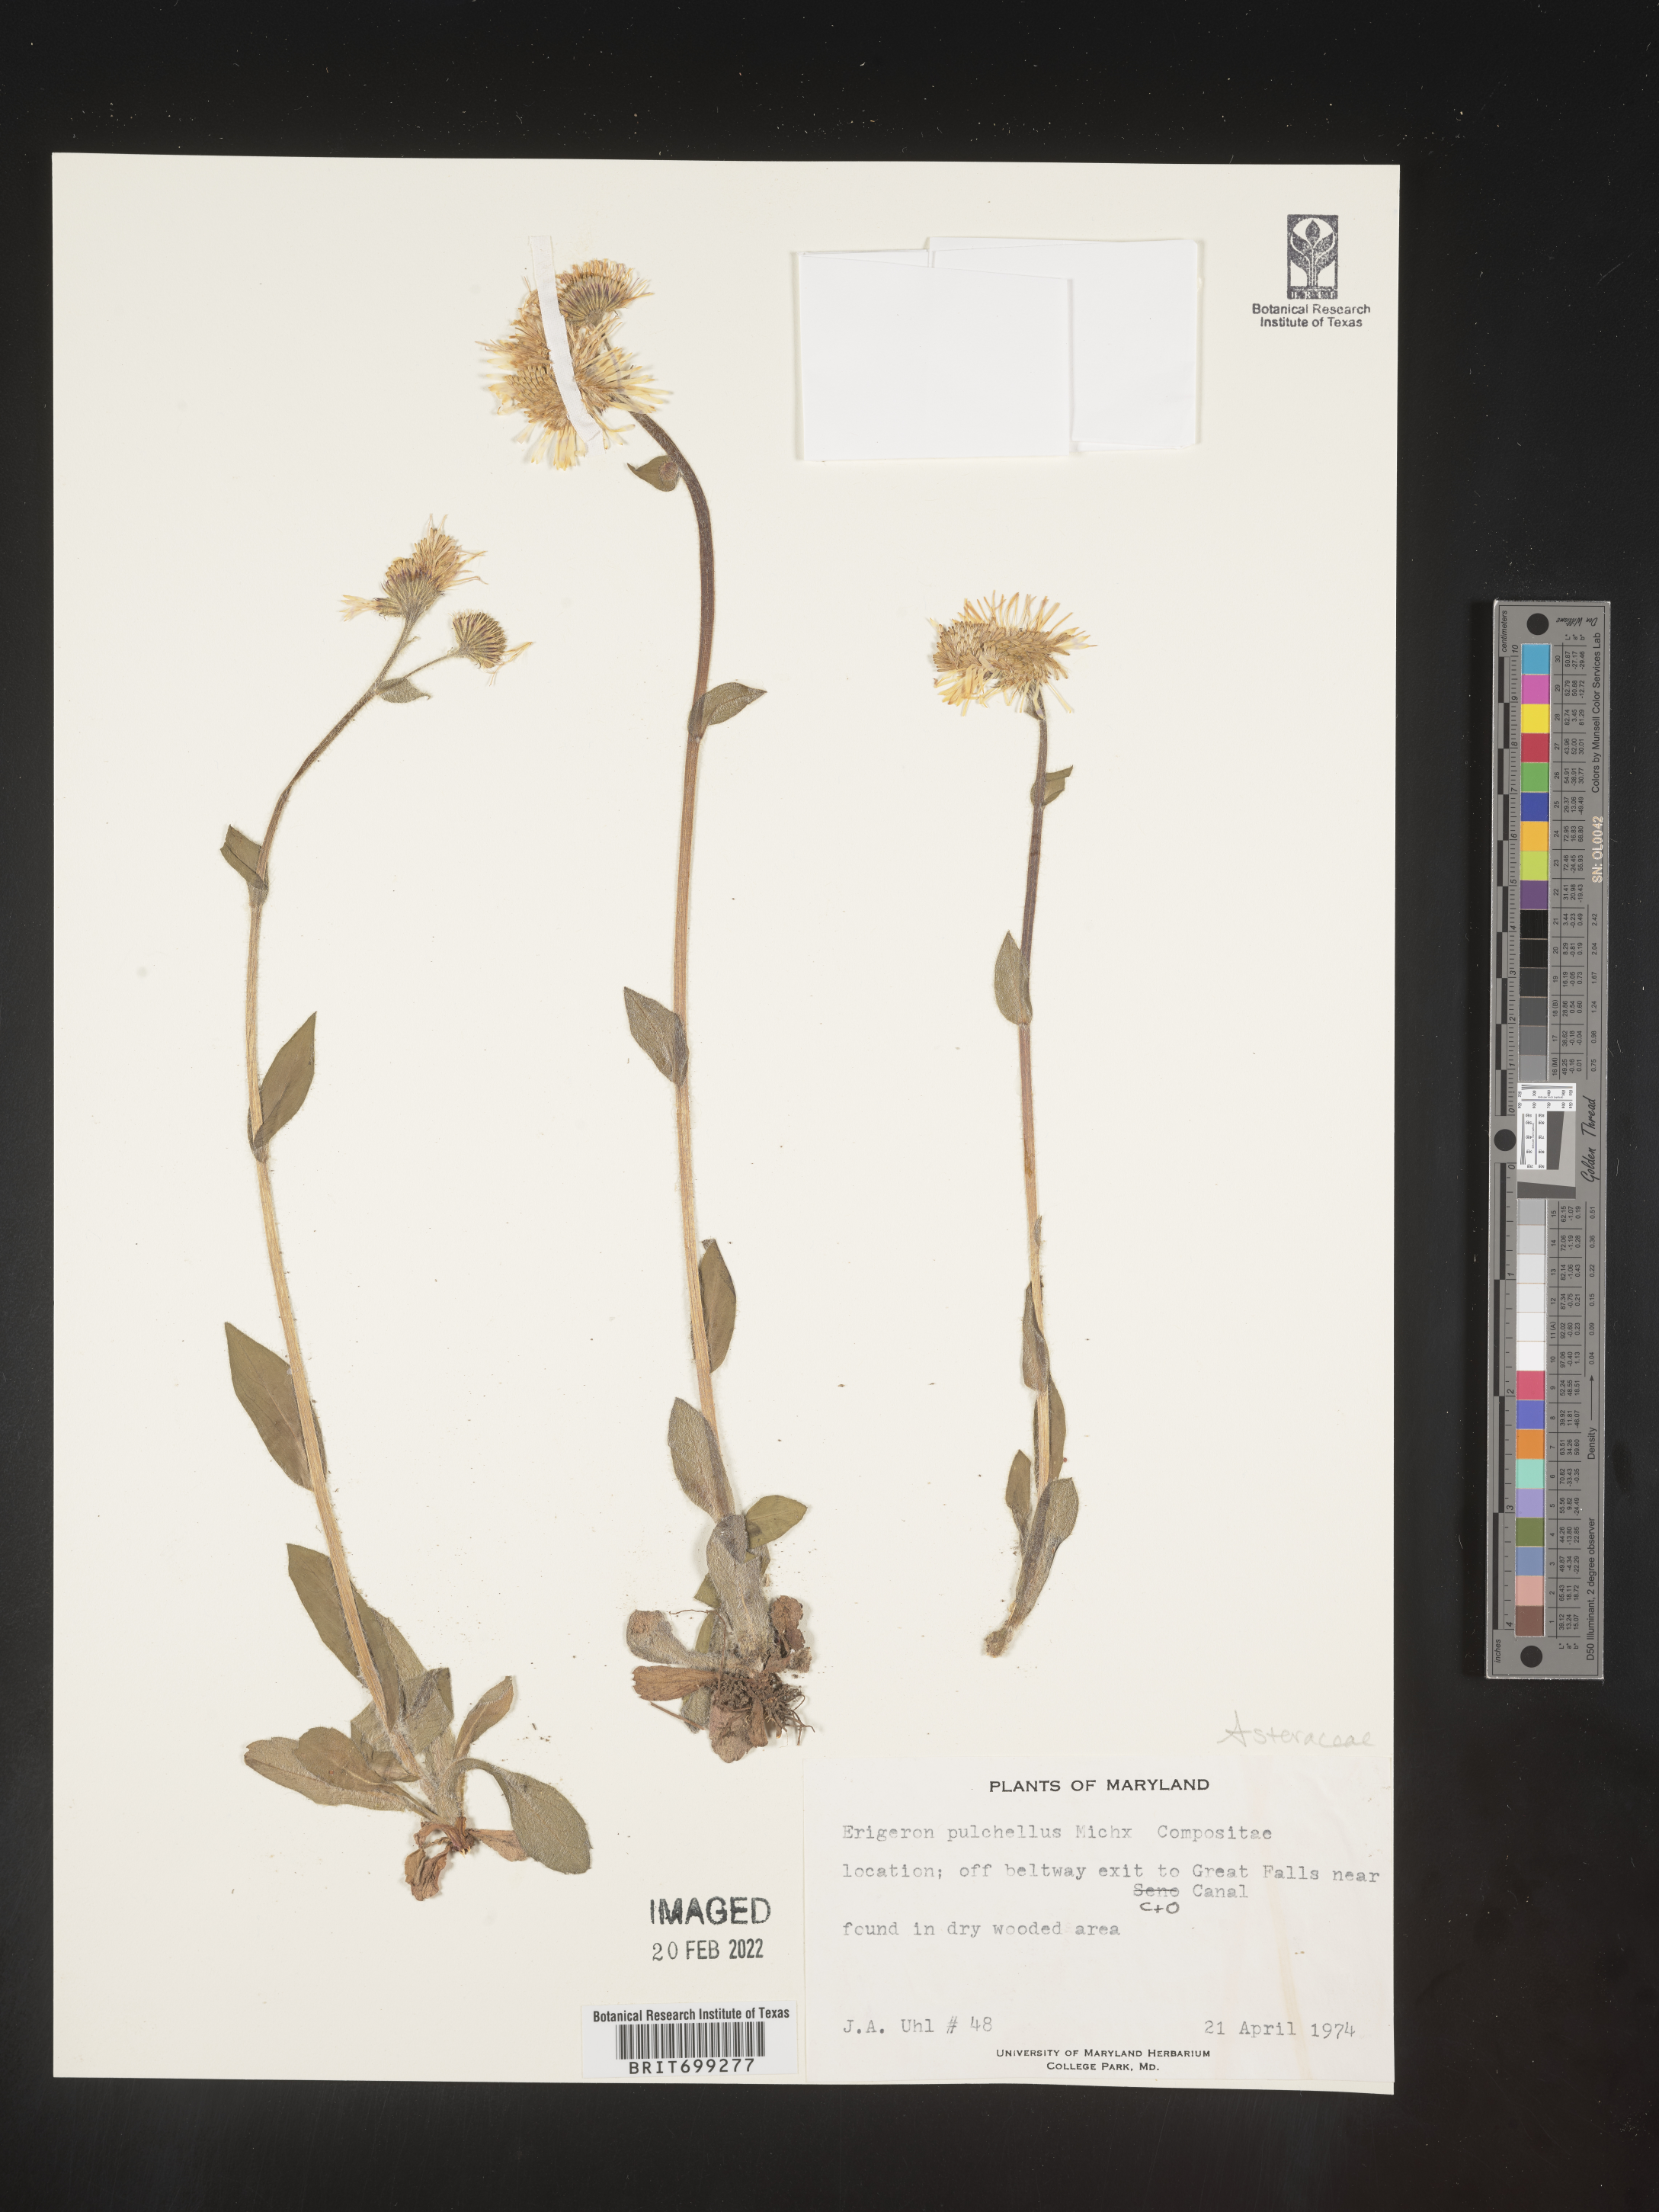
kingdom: Plantae
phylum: Tracheophyta
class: Magnoliopsida
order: Asterales
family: Asteraceae
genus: Erigeron
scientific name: Erigeron pulchellus
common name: Hairy fleabane
